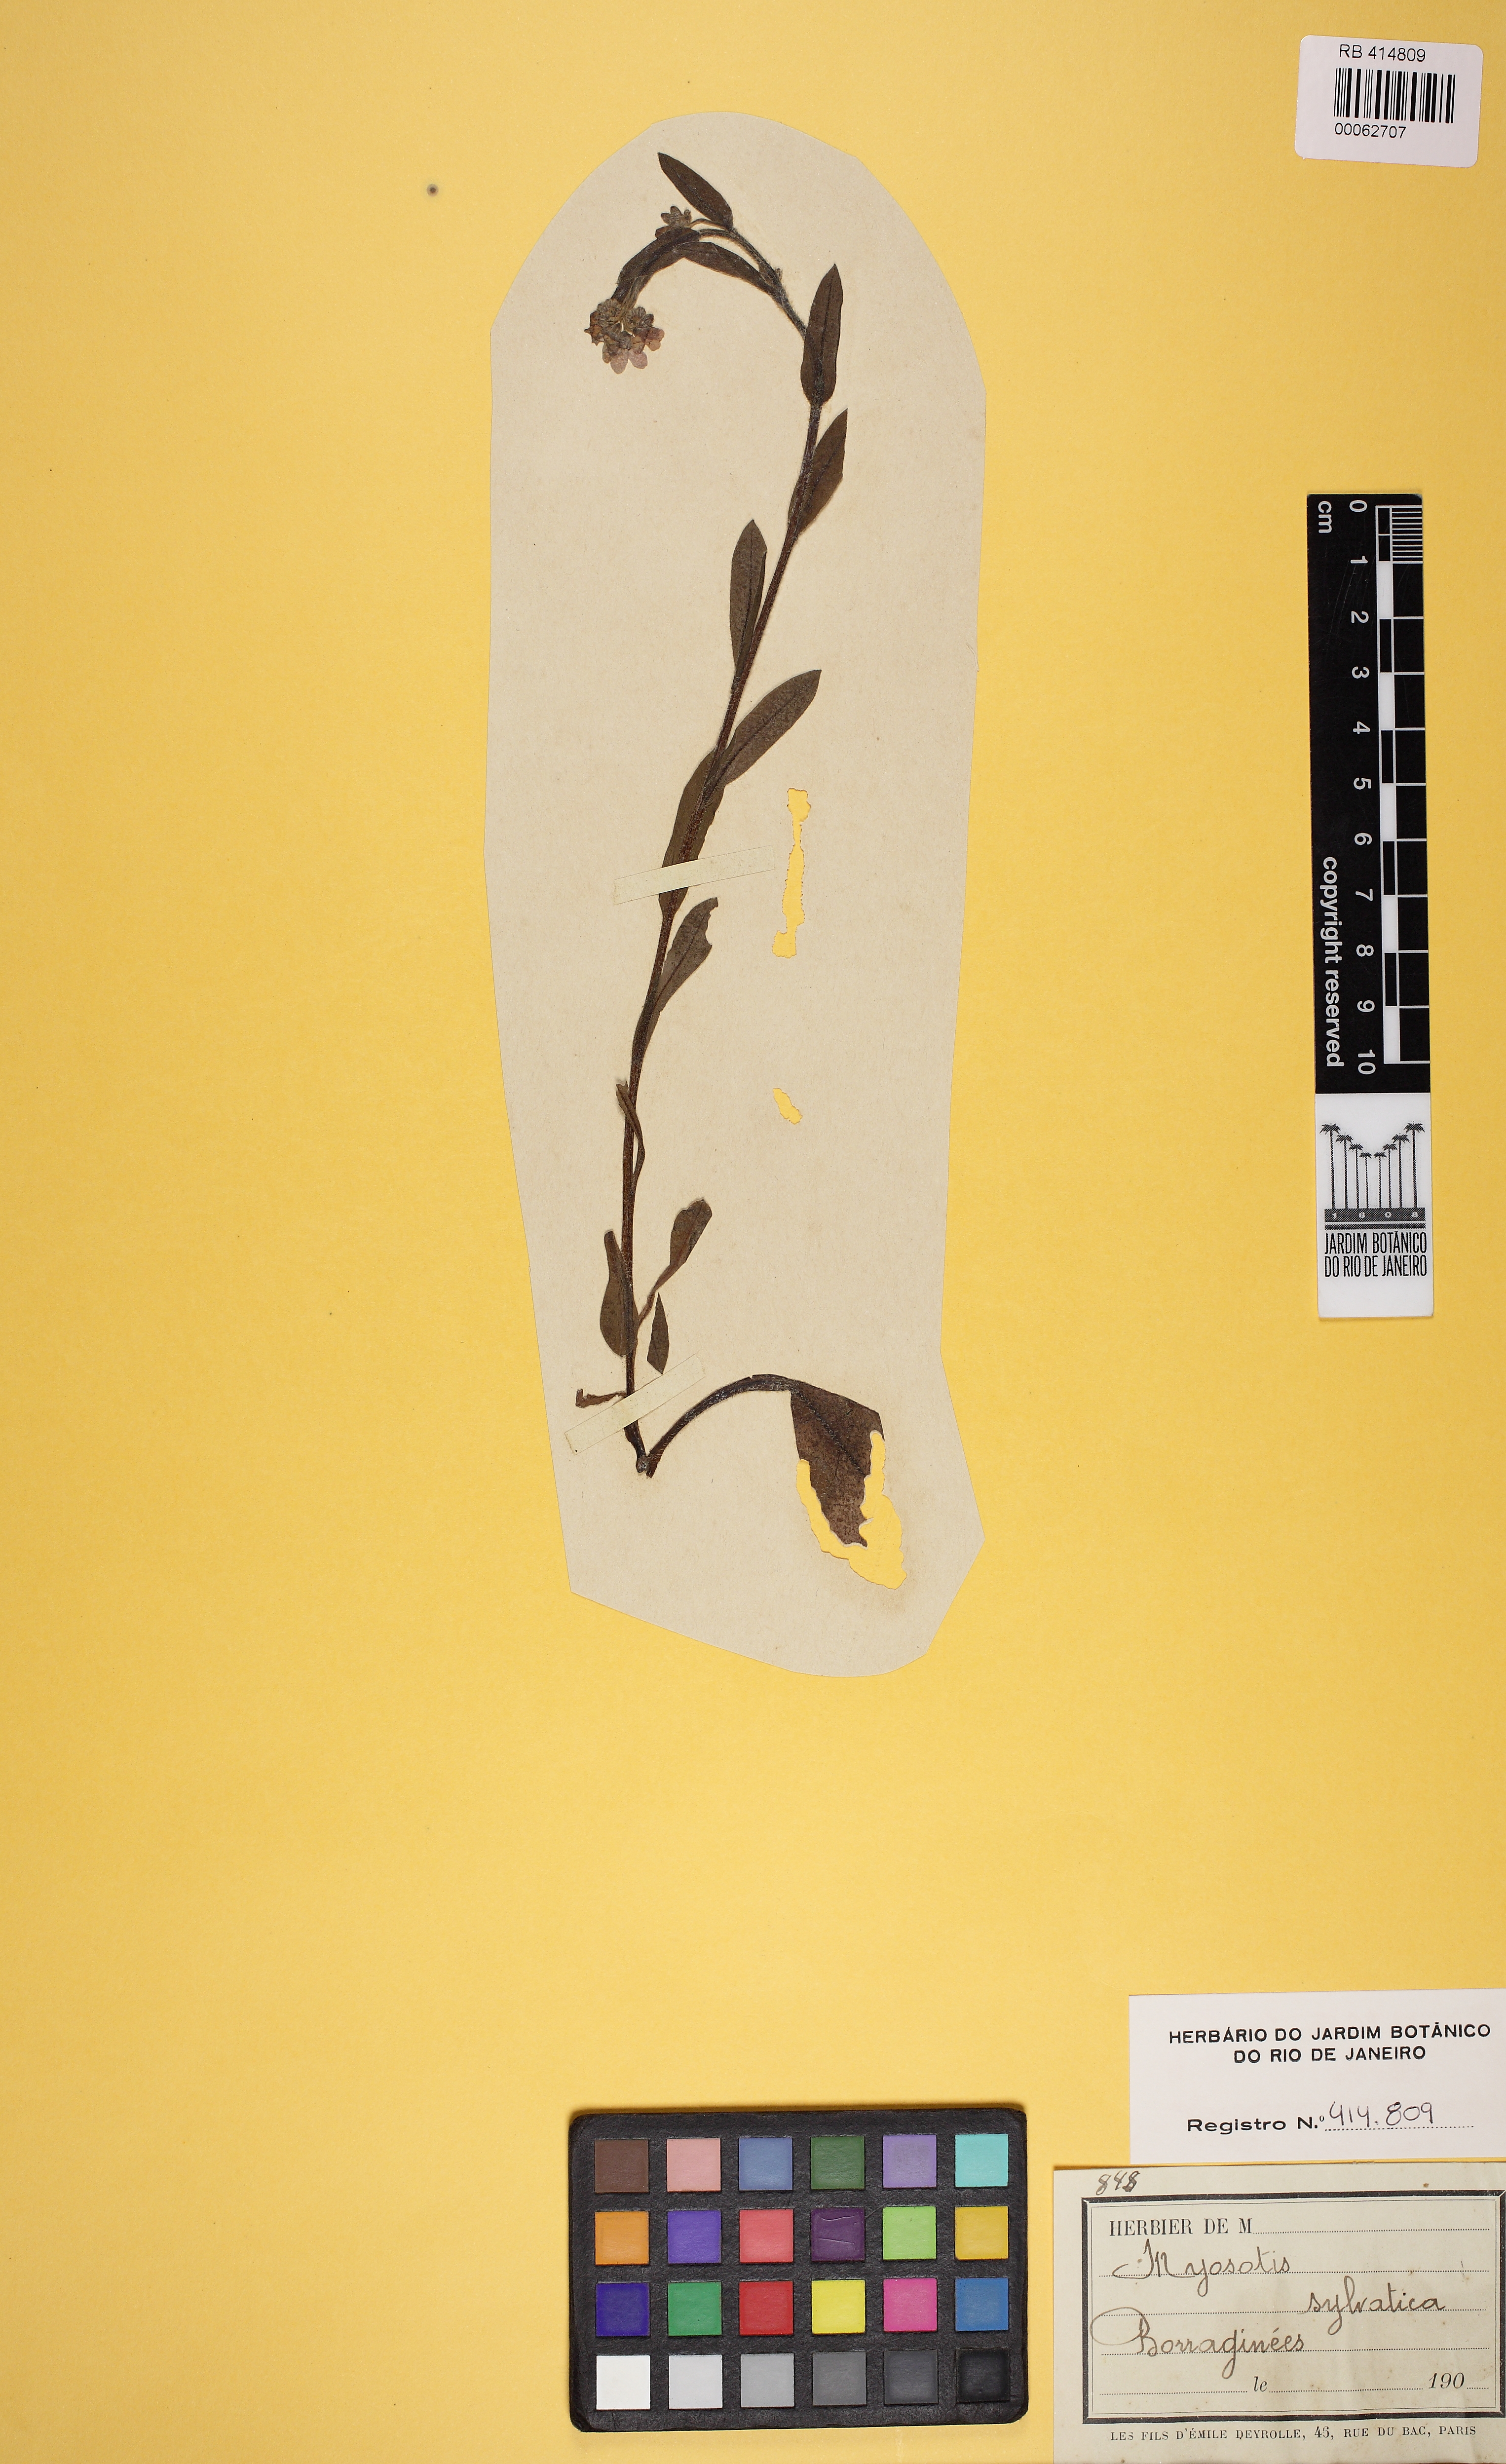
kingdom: Plantae
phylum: Tracheophyta
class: Magnoliopsida
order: Boraginales
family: Boraginaceae
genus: Myosotis
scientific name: Myosotis sylvatica
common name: Wood forget-me-not
